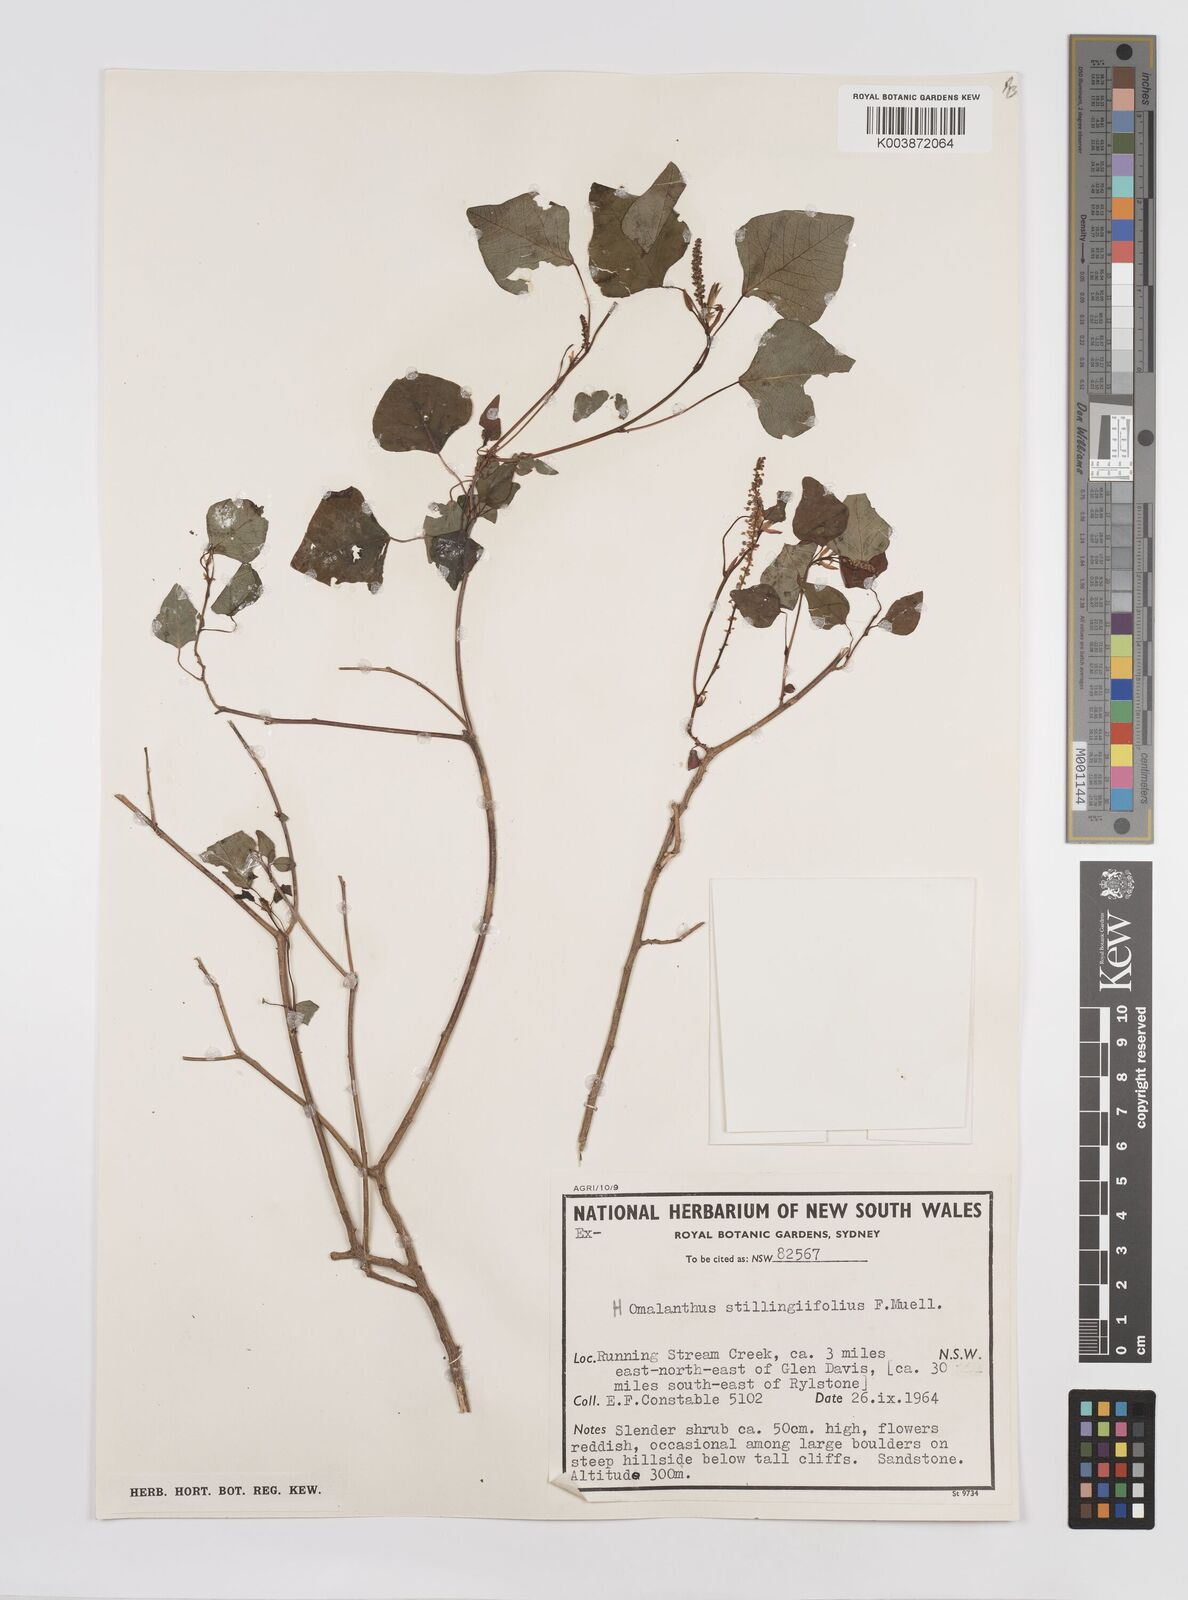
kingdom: Plantae
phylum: Tracheophyta
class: Magnoliopsida
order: Malpighiales
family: Euphorbiaceae
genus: Homalanthus
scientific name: Homalanthus stillingifolius
